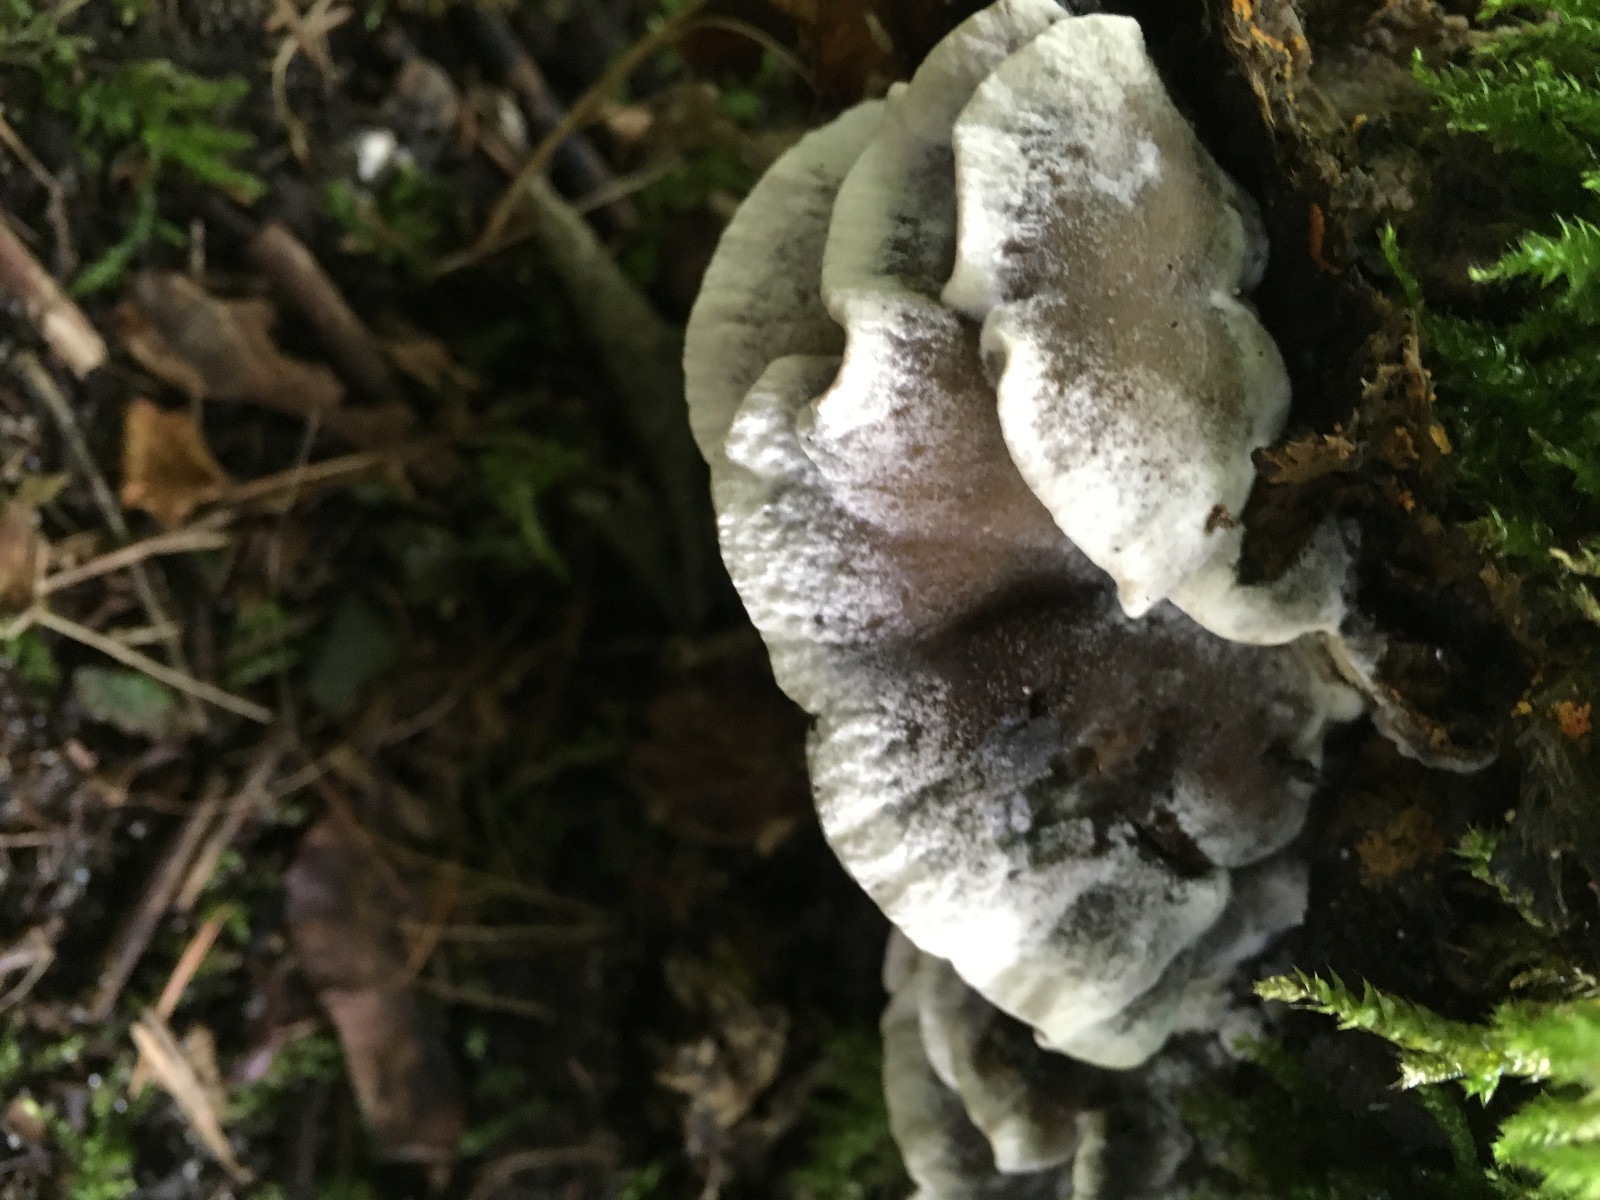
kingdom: Fungi
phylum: Basidiomycota
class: Agaricomycetes
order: Polyporales
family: Phanerochaetaceae
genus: Bjerkandera
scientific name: Bjerkandera adusta
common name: sveden sodporesvamp
